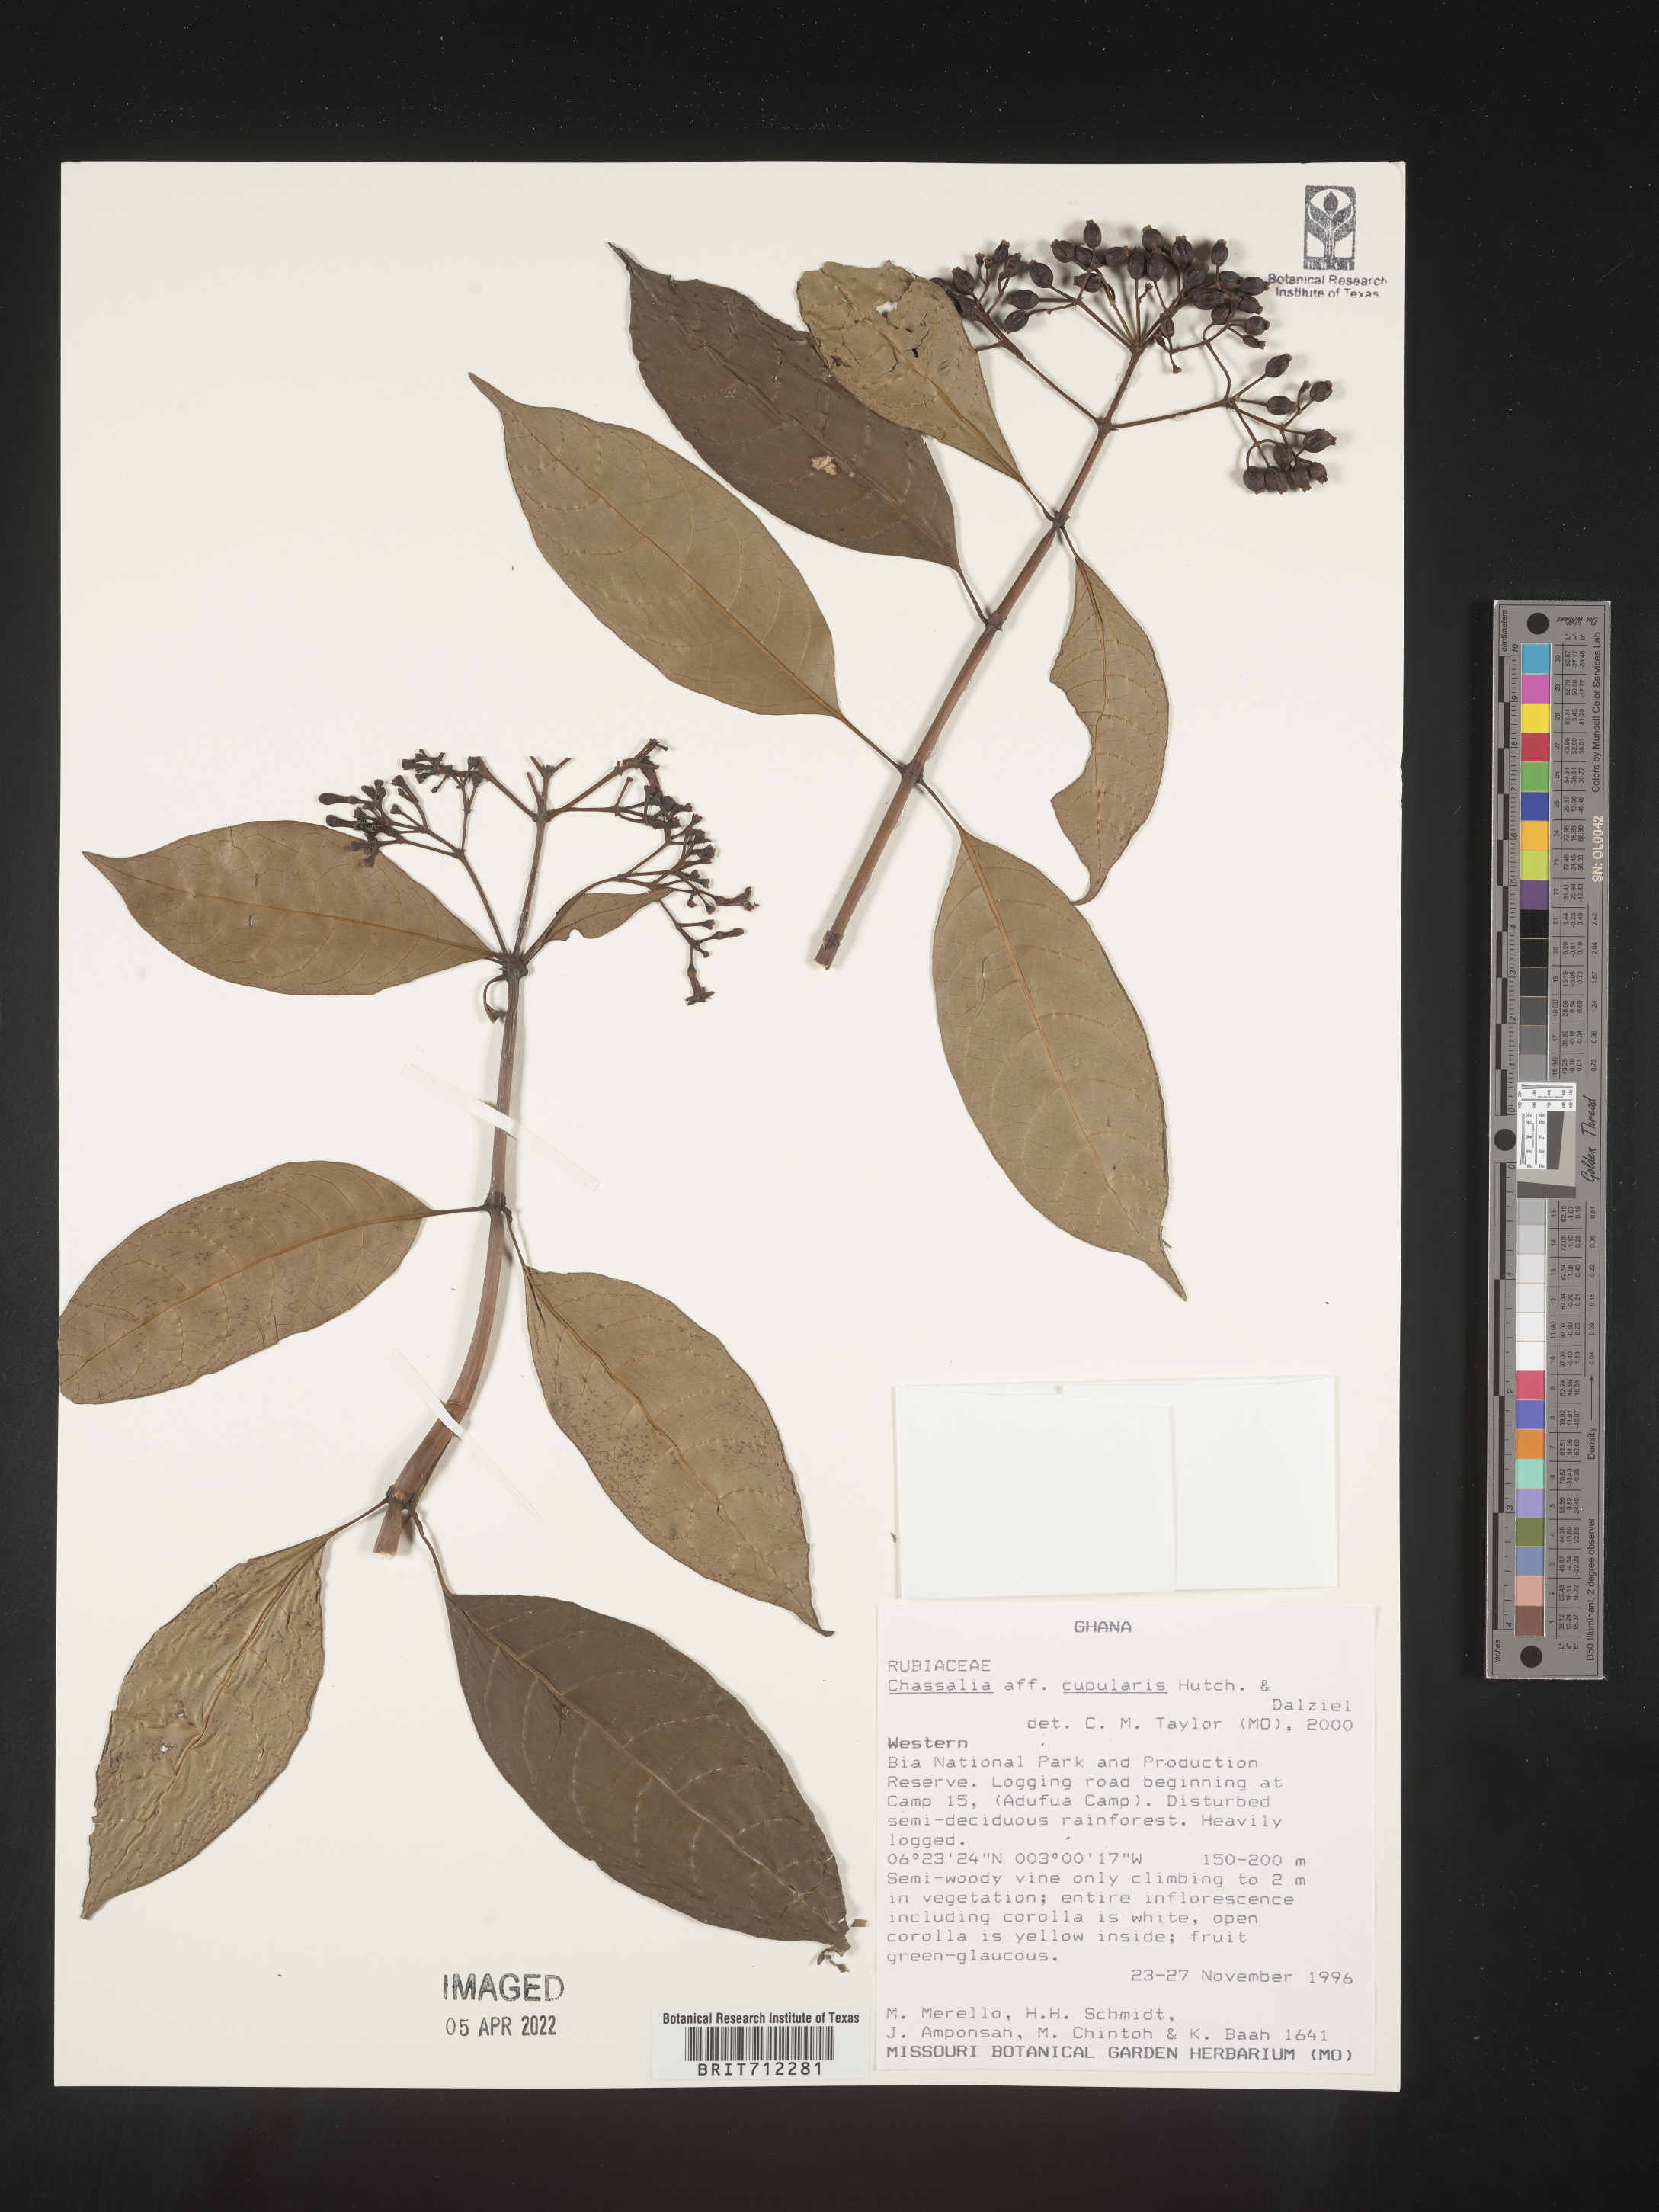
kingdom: Plantae
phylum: Tracheophyta
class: Magnoliopsida
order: Gentianales
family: Rubiaceae
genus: Chassalia
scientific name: Chassalia
